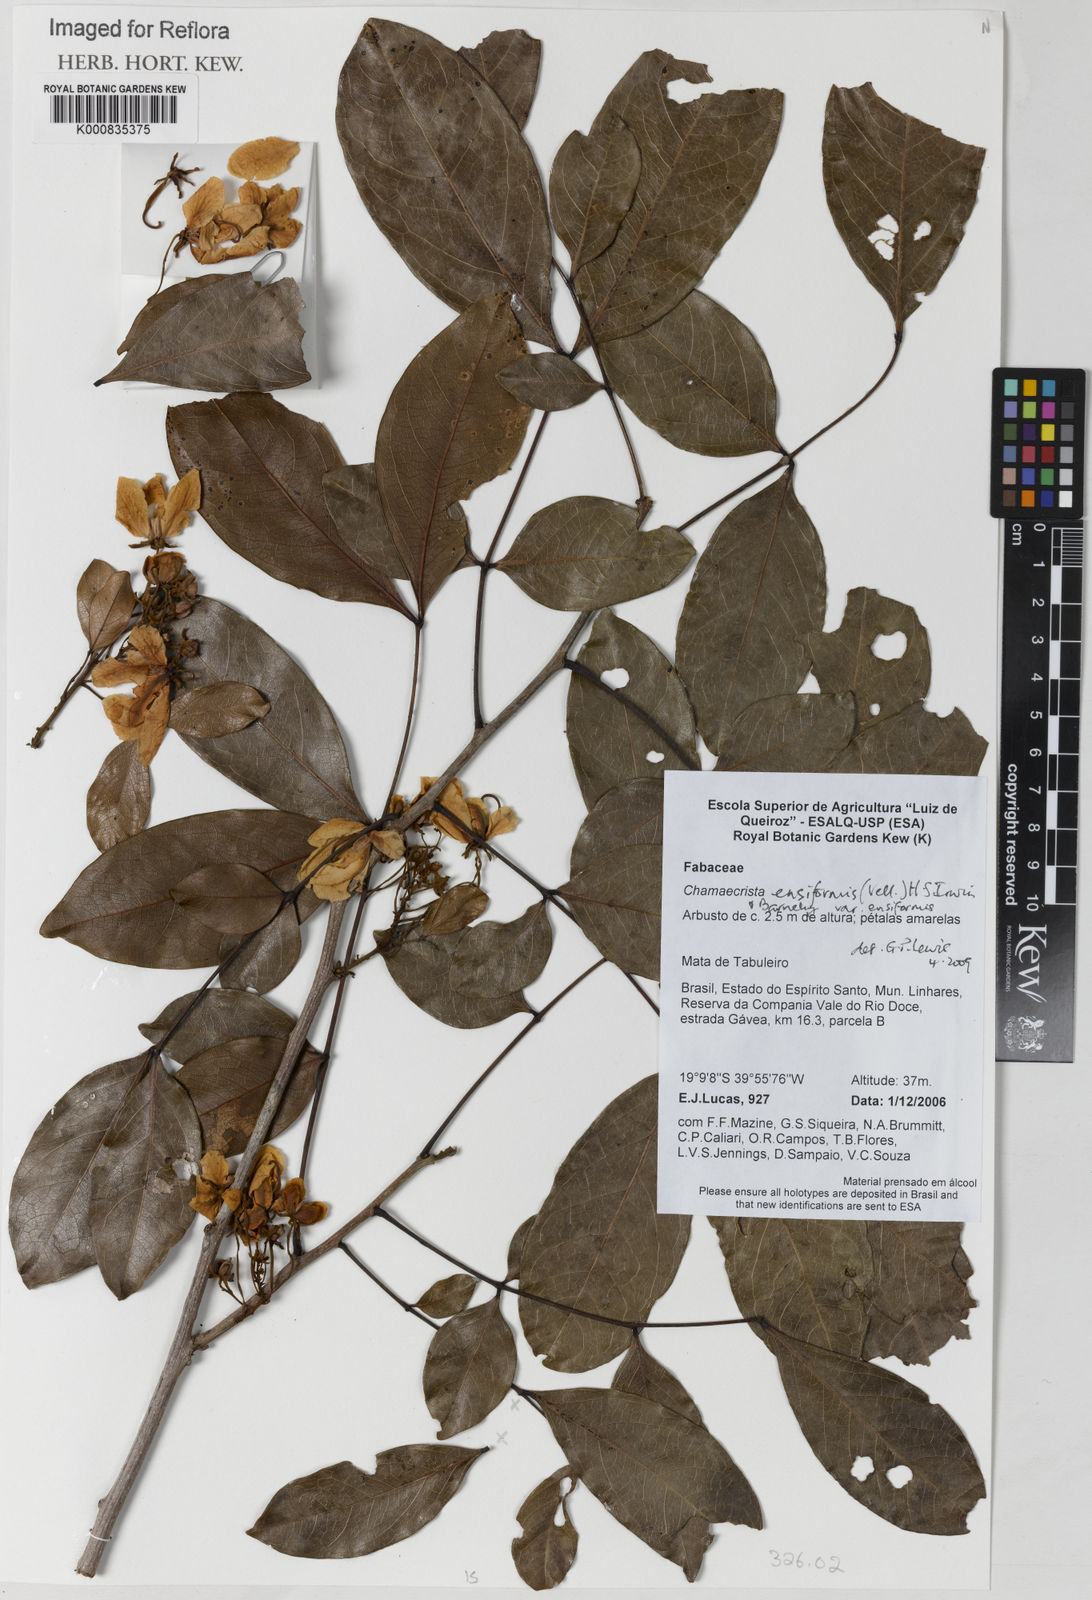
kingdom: Plantae
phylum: Tracheophyta
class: Magnoliopsida
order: Fabales
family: Fabaceae
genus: Chamaecrista
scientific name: Chamaecrista ensiformis
